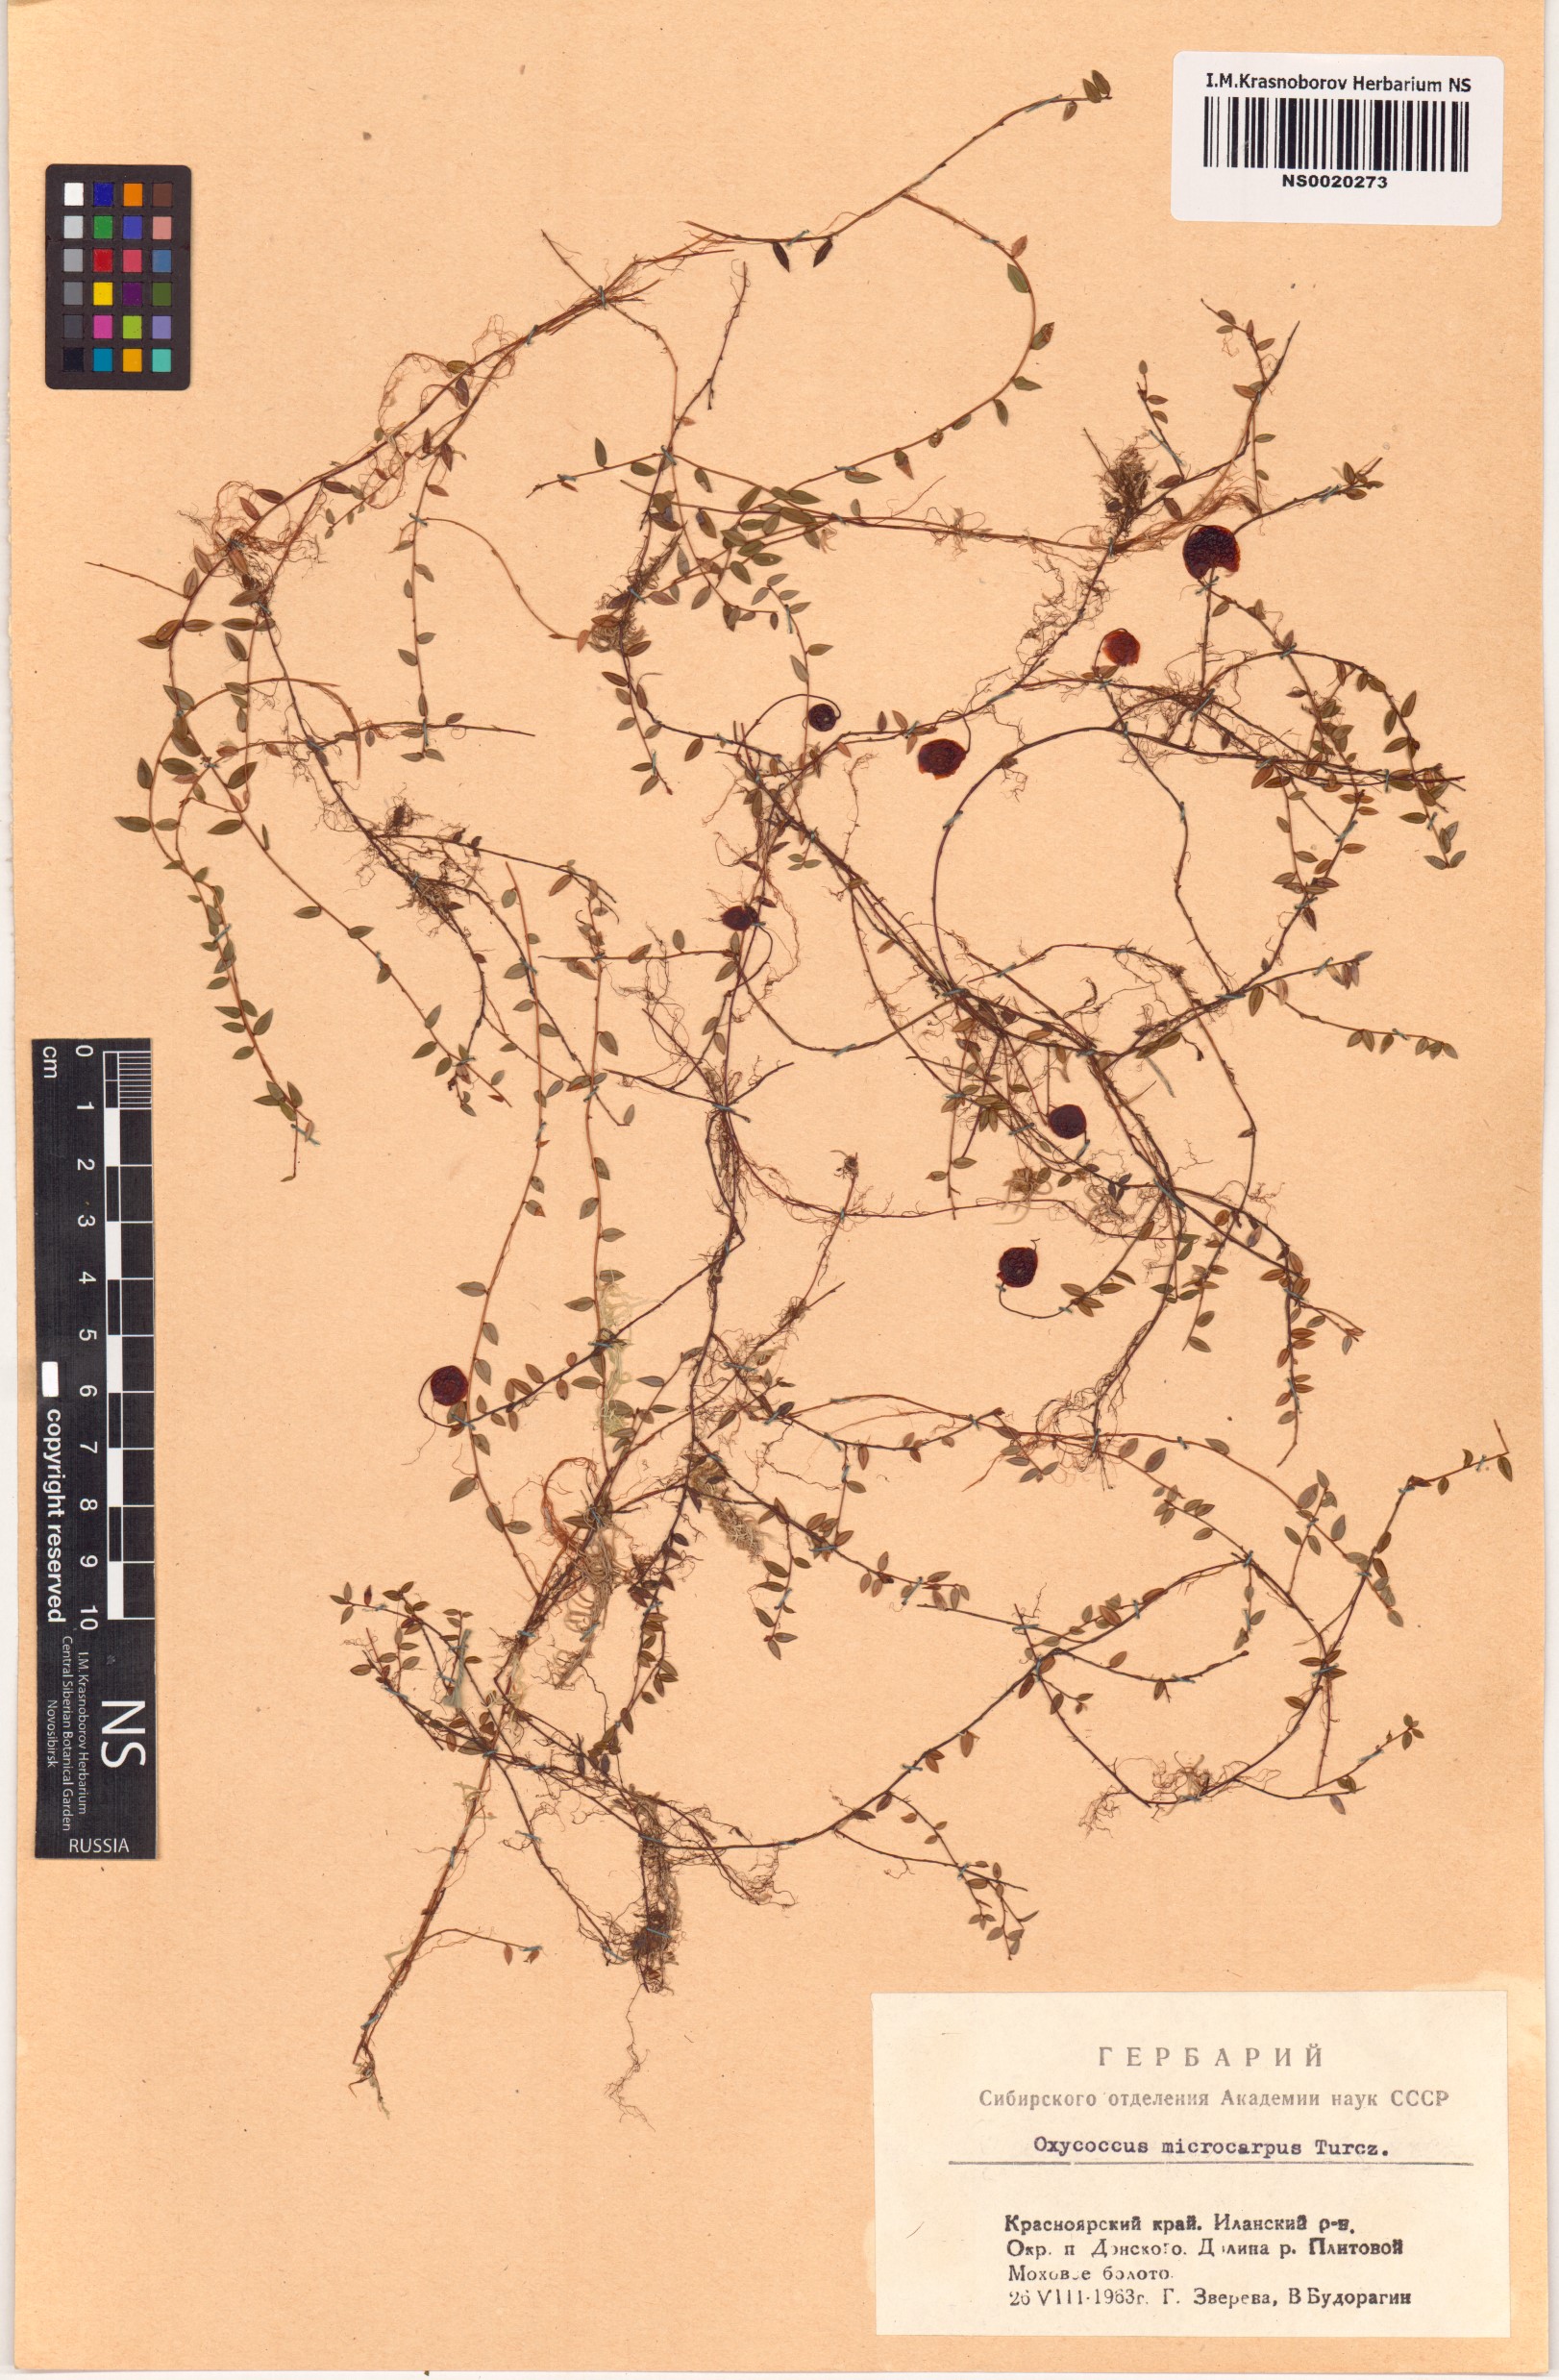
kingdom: Plantae
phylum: Tracheophyta
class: Magnoliopsida
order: Ericales
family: Ericaceae
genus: Vaccinium
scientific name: Vaccinium microcarpum
